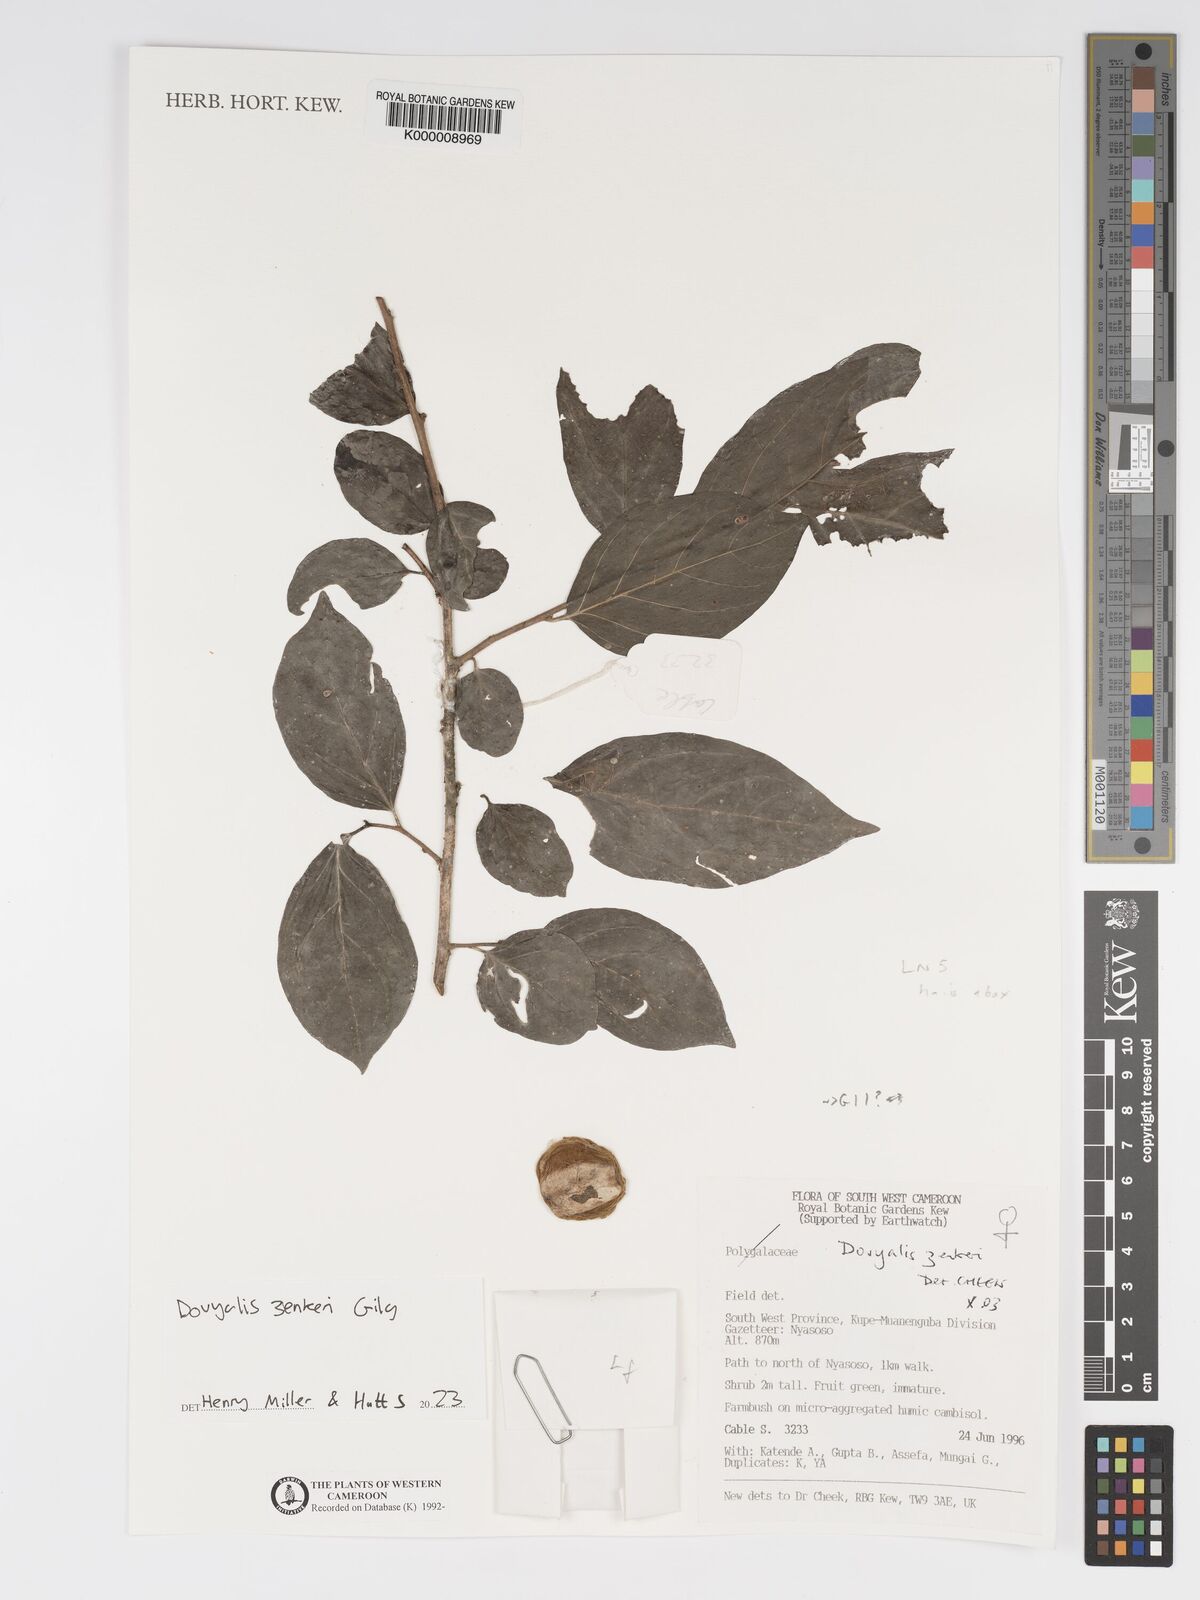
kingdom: Plantae
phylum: Tracheophyta
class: Magnoliopsida
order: Malpighiales
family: Salicaceae
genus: Dovyalis
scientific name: Dovyalis zenkeri
